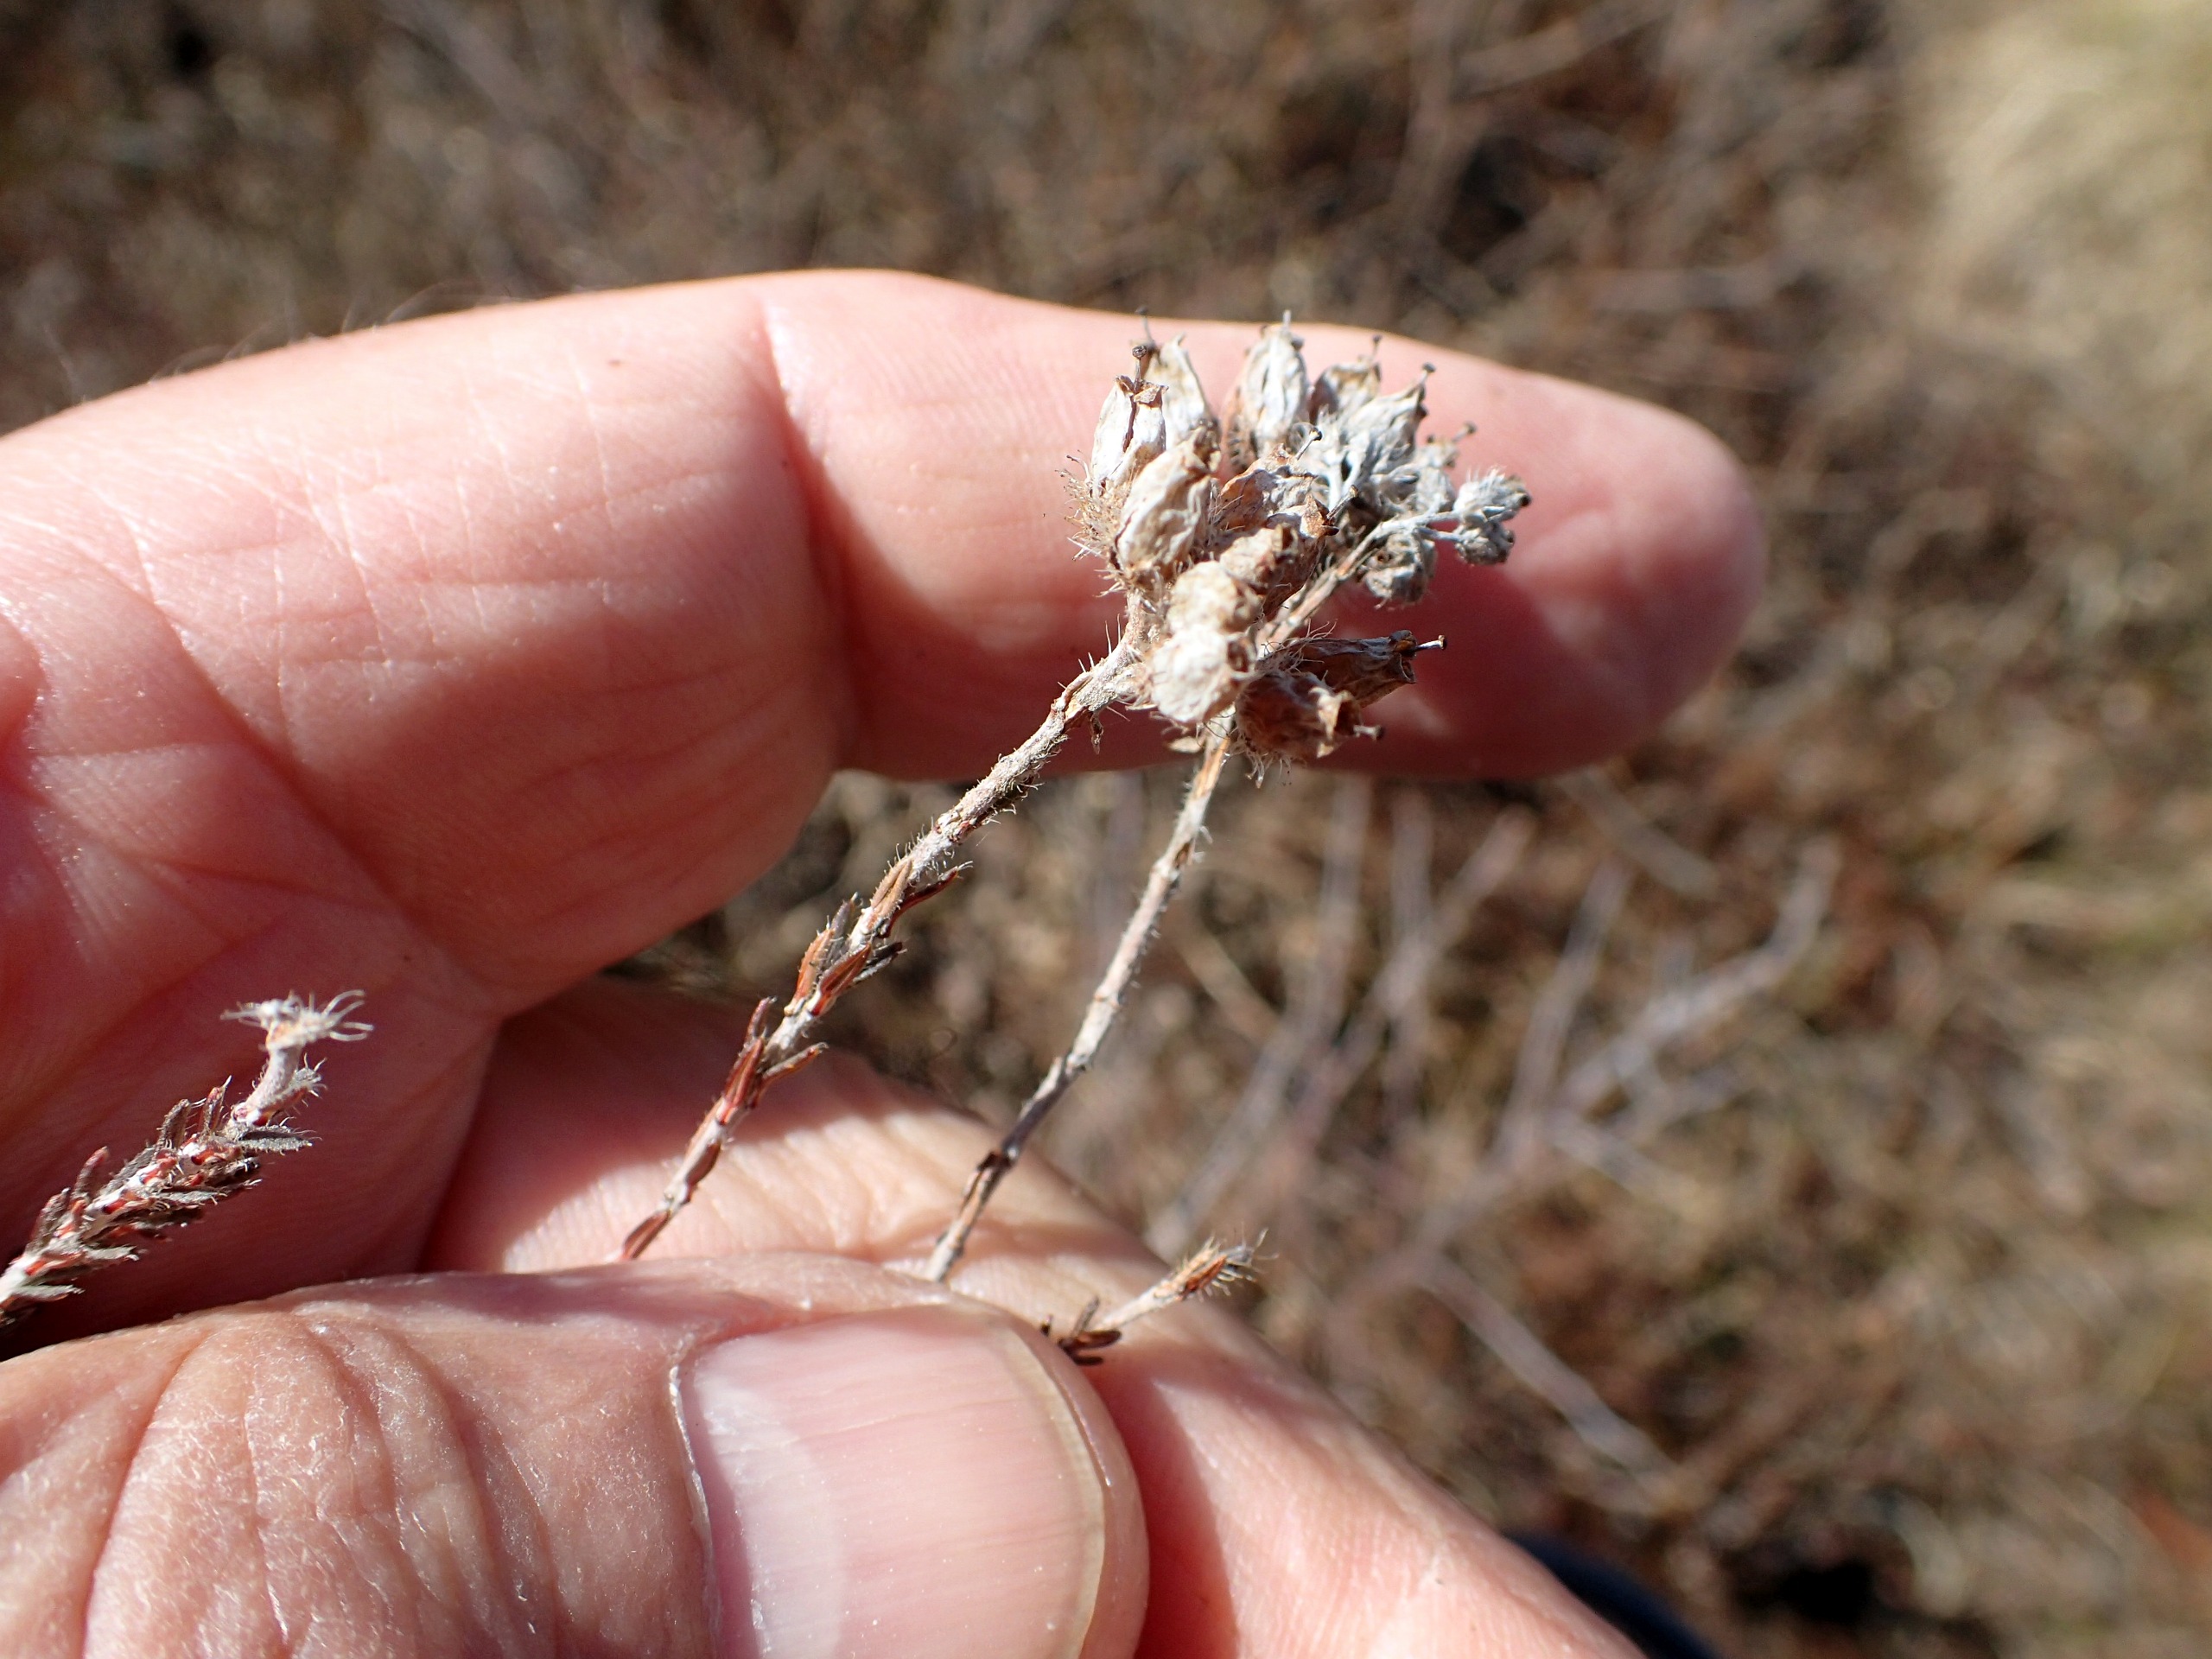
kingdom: Plantae
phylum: Tracheophyta
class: Magnoliopsida
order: Ericales
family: Ericaceae
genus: Erica
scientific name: Erica tetralix
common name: Klokkelyng
